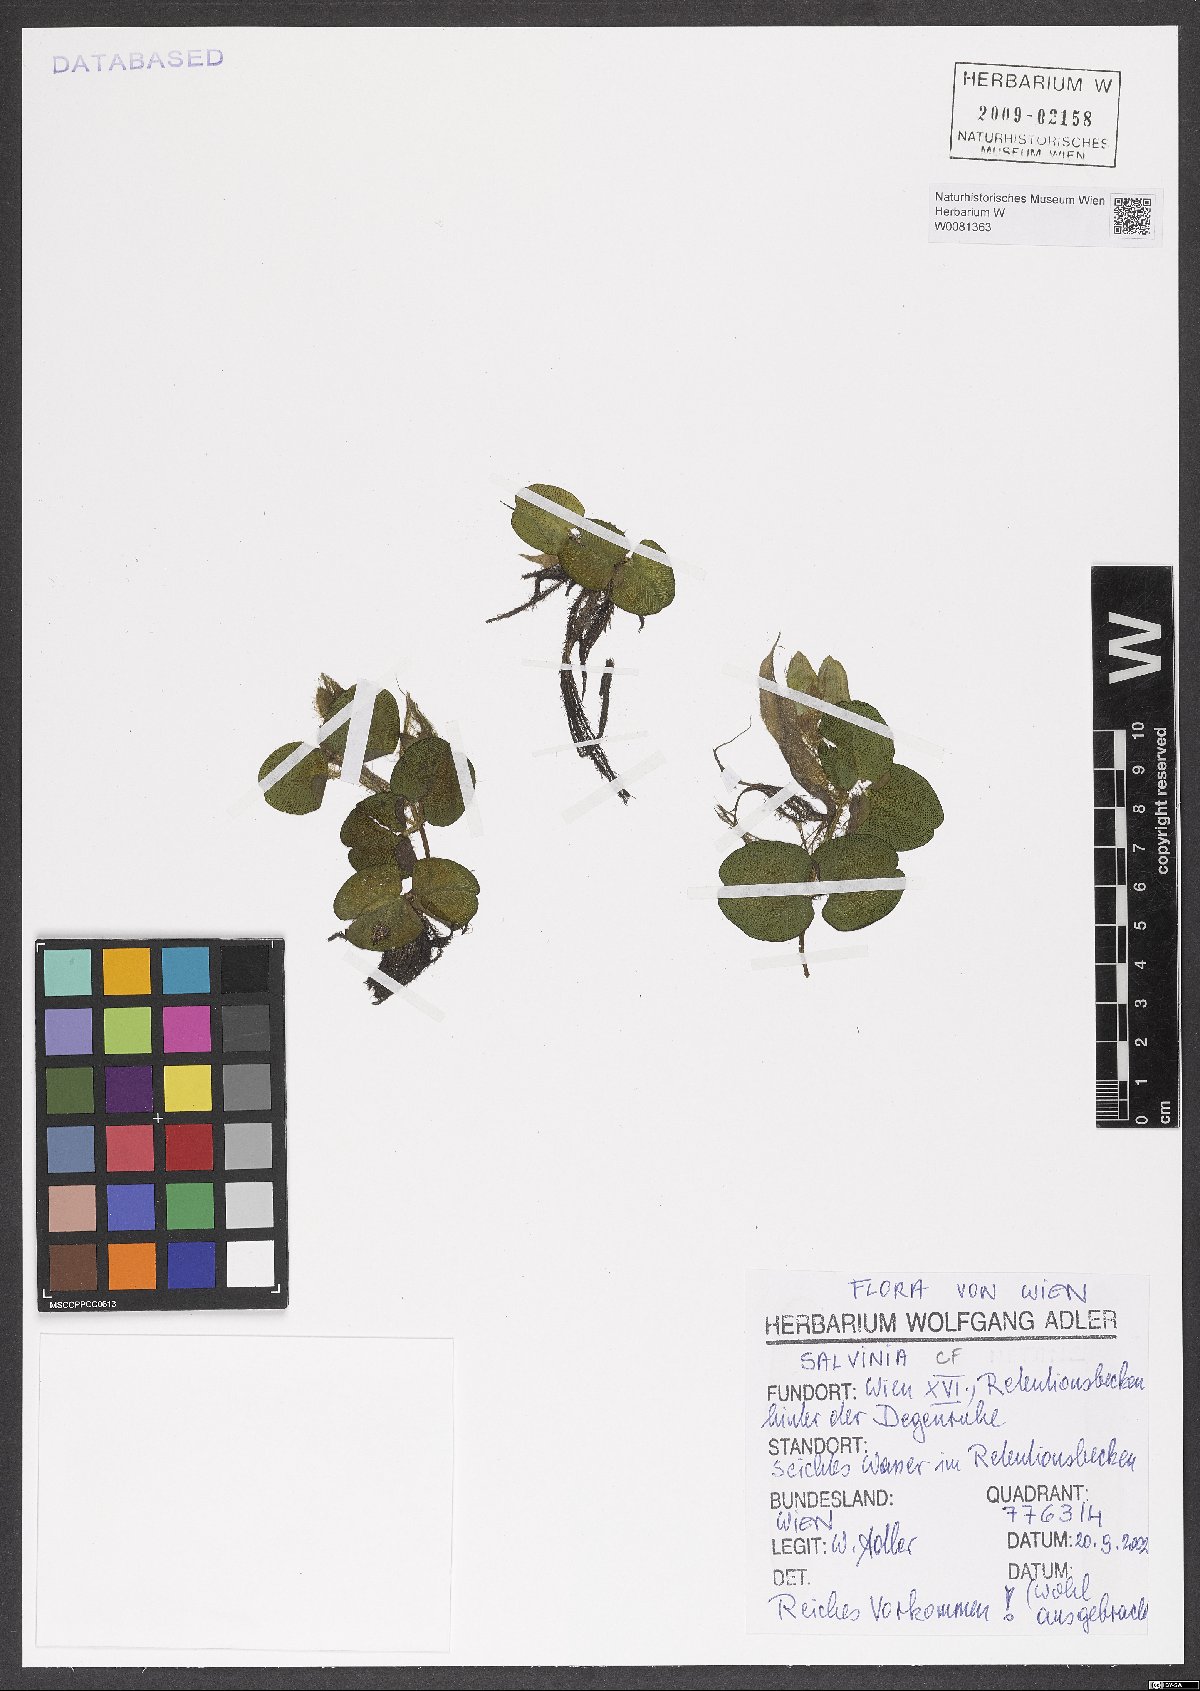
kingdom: Plantae
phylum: Tracheophyta
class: Polypodiopsida
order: Salviniales
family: Salviniaceae
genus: Salvinia
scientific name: Salvinia molesta
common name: Kariba weed
